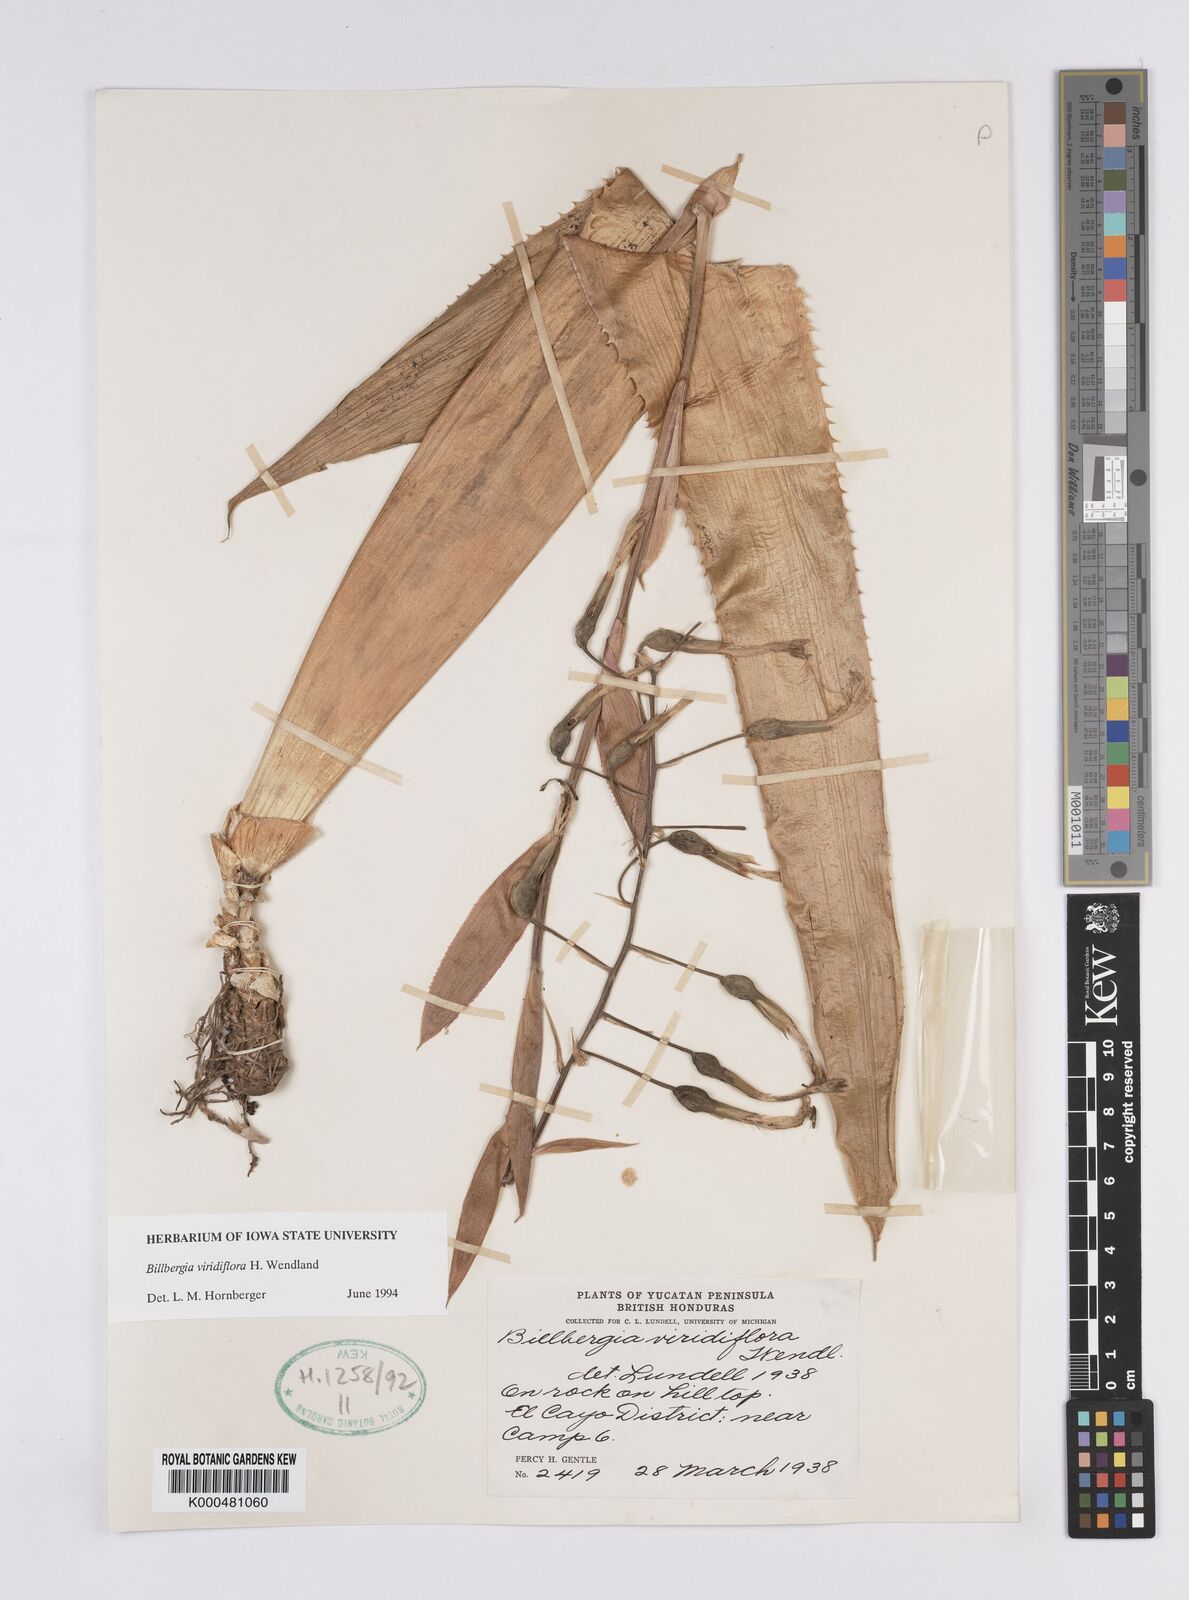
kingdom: Plantae
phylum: Tracheophyta
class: Liliopsida
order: Poales
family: Bromeliaceae
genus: Billbergia
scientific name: Billbergia viridiflora
